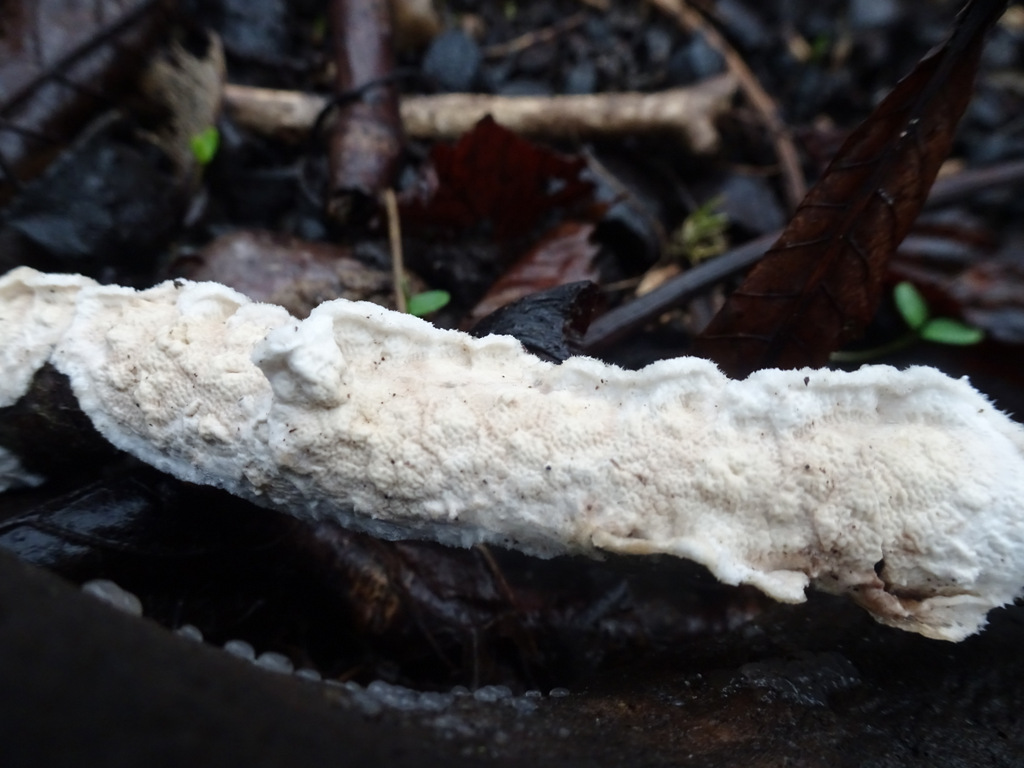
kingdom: Fungi
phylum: Basidiomycota
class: Agaricomycetes
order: Polyporales
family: Irpicaceae
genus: Byssomerulius
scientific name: Byssomerulius corium
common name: læder-åresvamp
